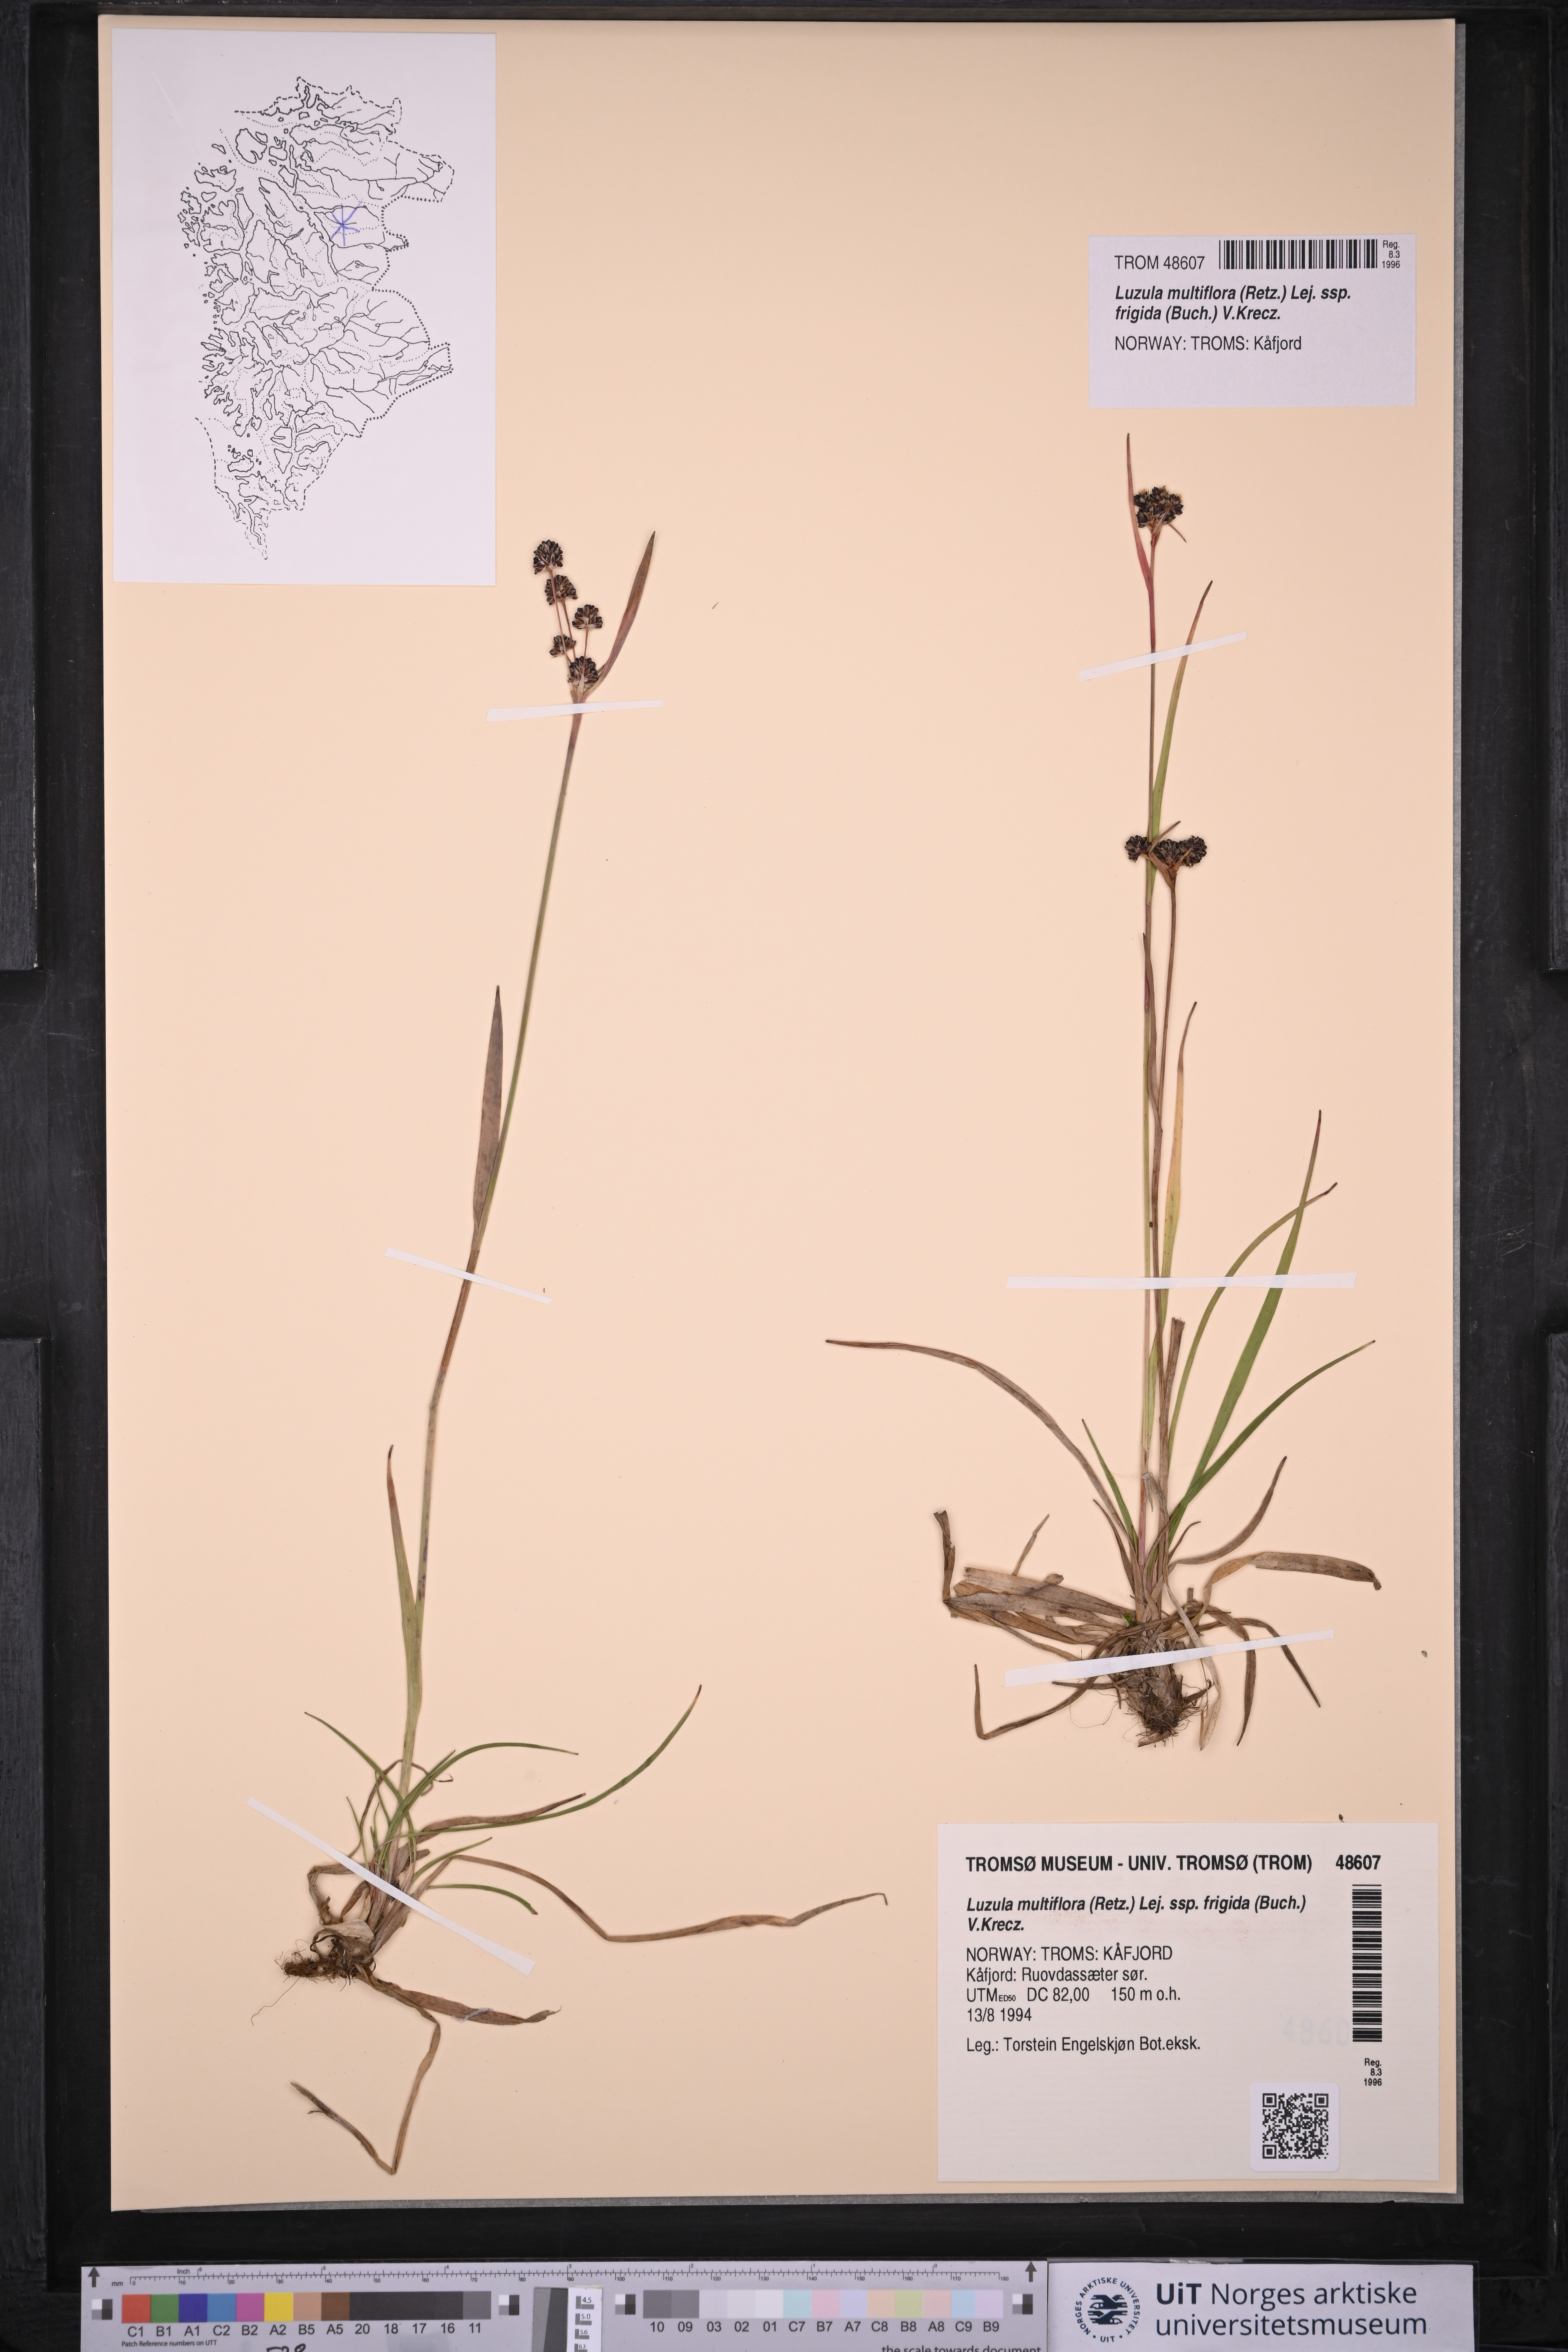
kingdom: Plantae
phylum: Tracheophyta
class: Liliopsida
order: Poales
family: Juncaceae
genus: Luzula
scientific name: Luzula multiflora
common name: Heath wood-rush
